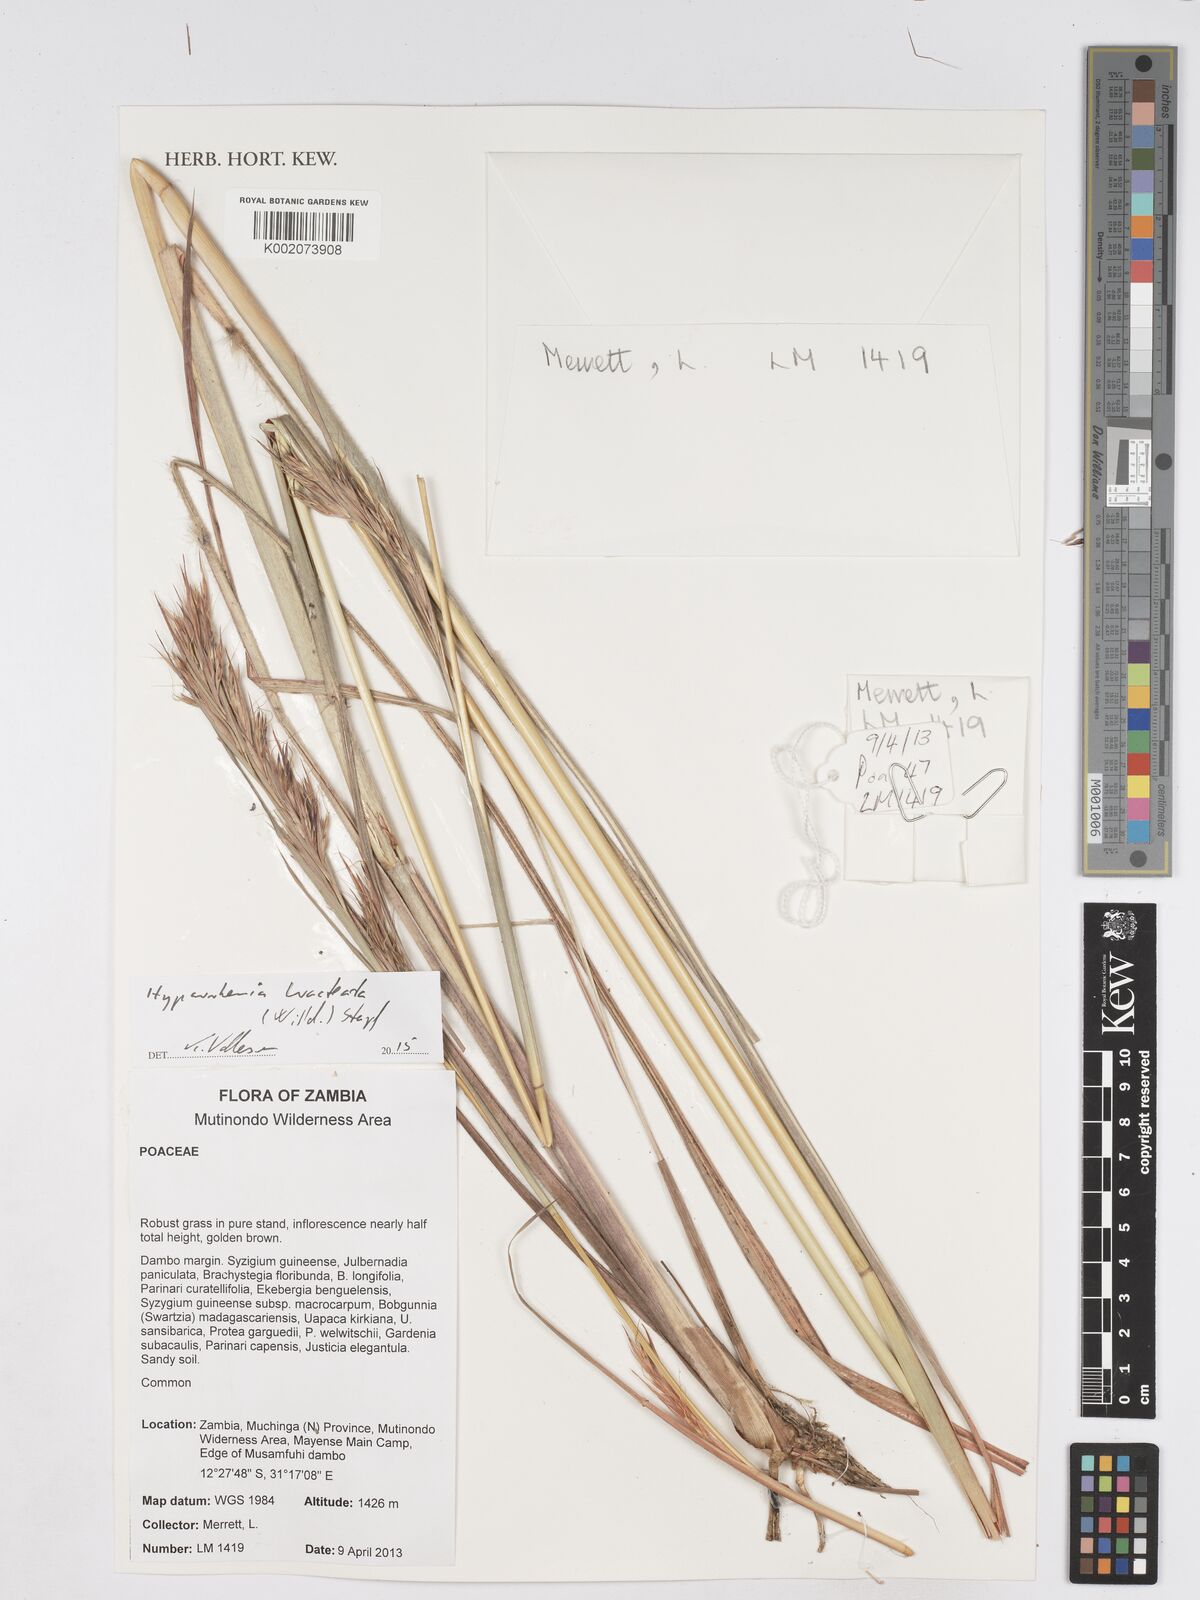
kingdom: Plantae
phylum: Tracheophyta
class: Liliopsida
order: Poales
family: Poaceae
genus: Hyparrhenia
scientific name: Hyparrhenia bracteata
